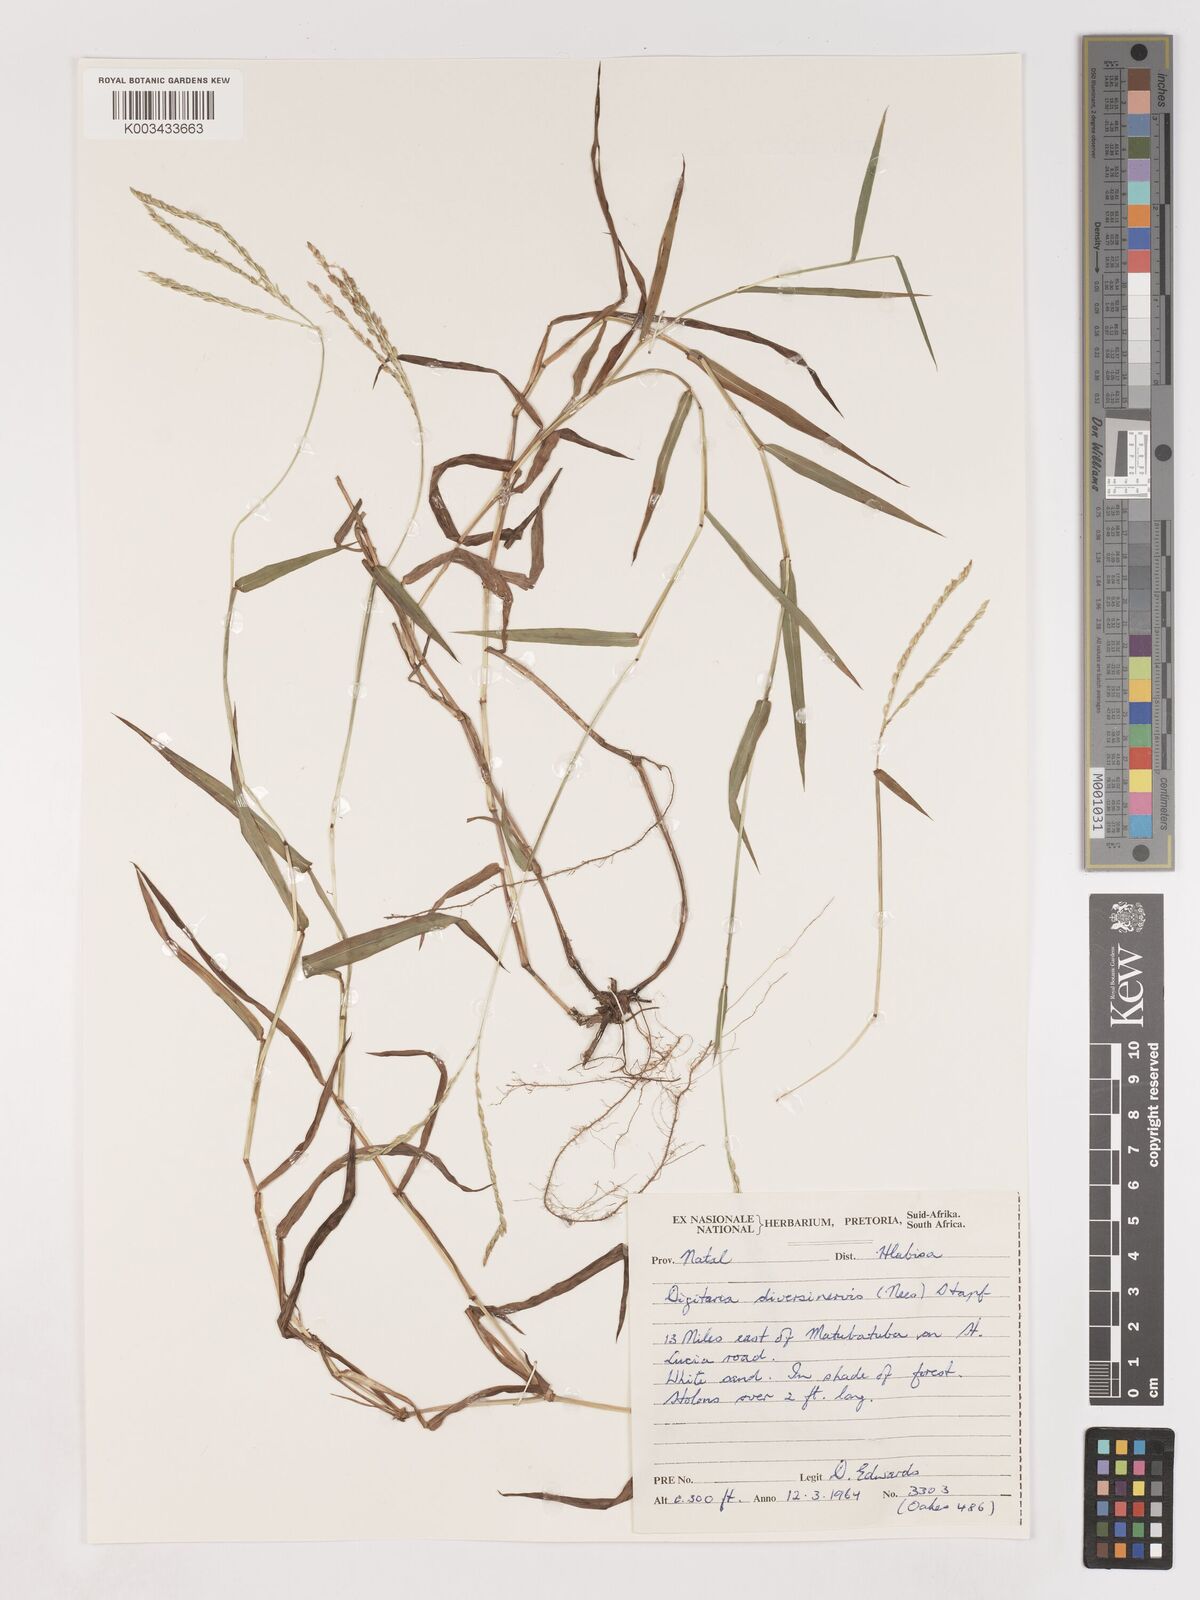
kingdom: Plantae
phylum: Tracheophyta
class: Liliopsida
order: Poales
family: Poaceae
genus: Digitaria
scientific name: Digitaria diversinervis
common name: Richmond finger grass
